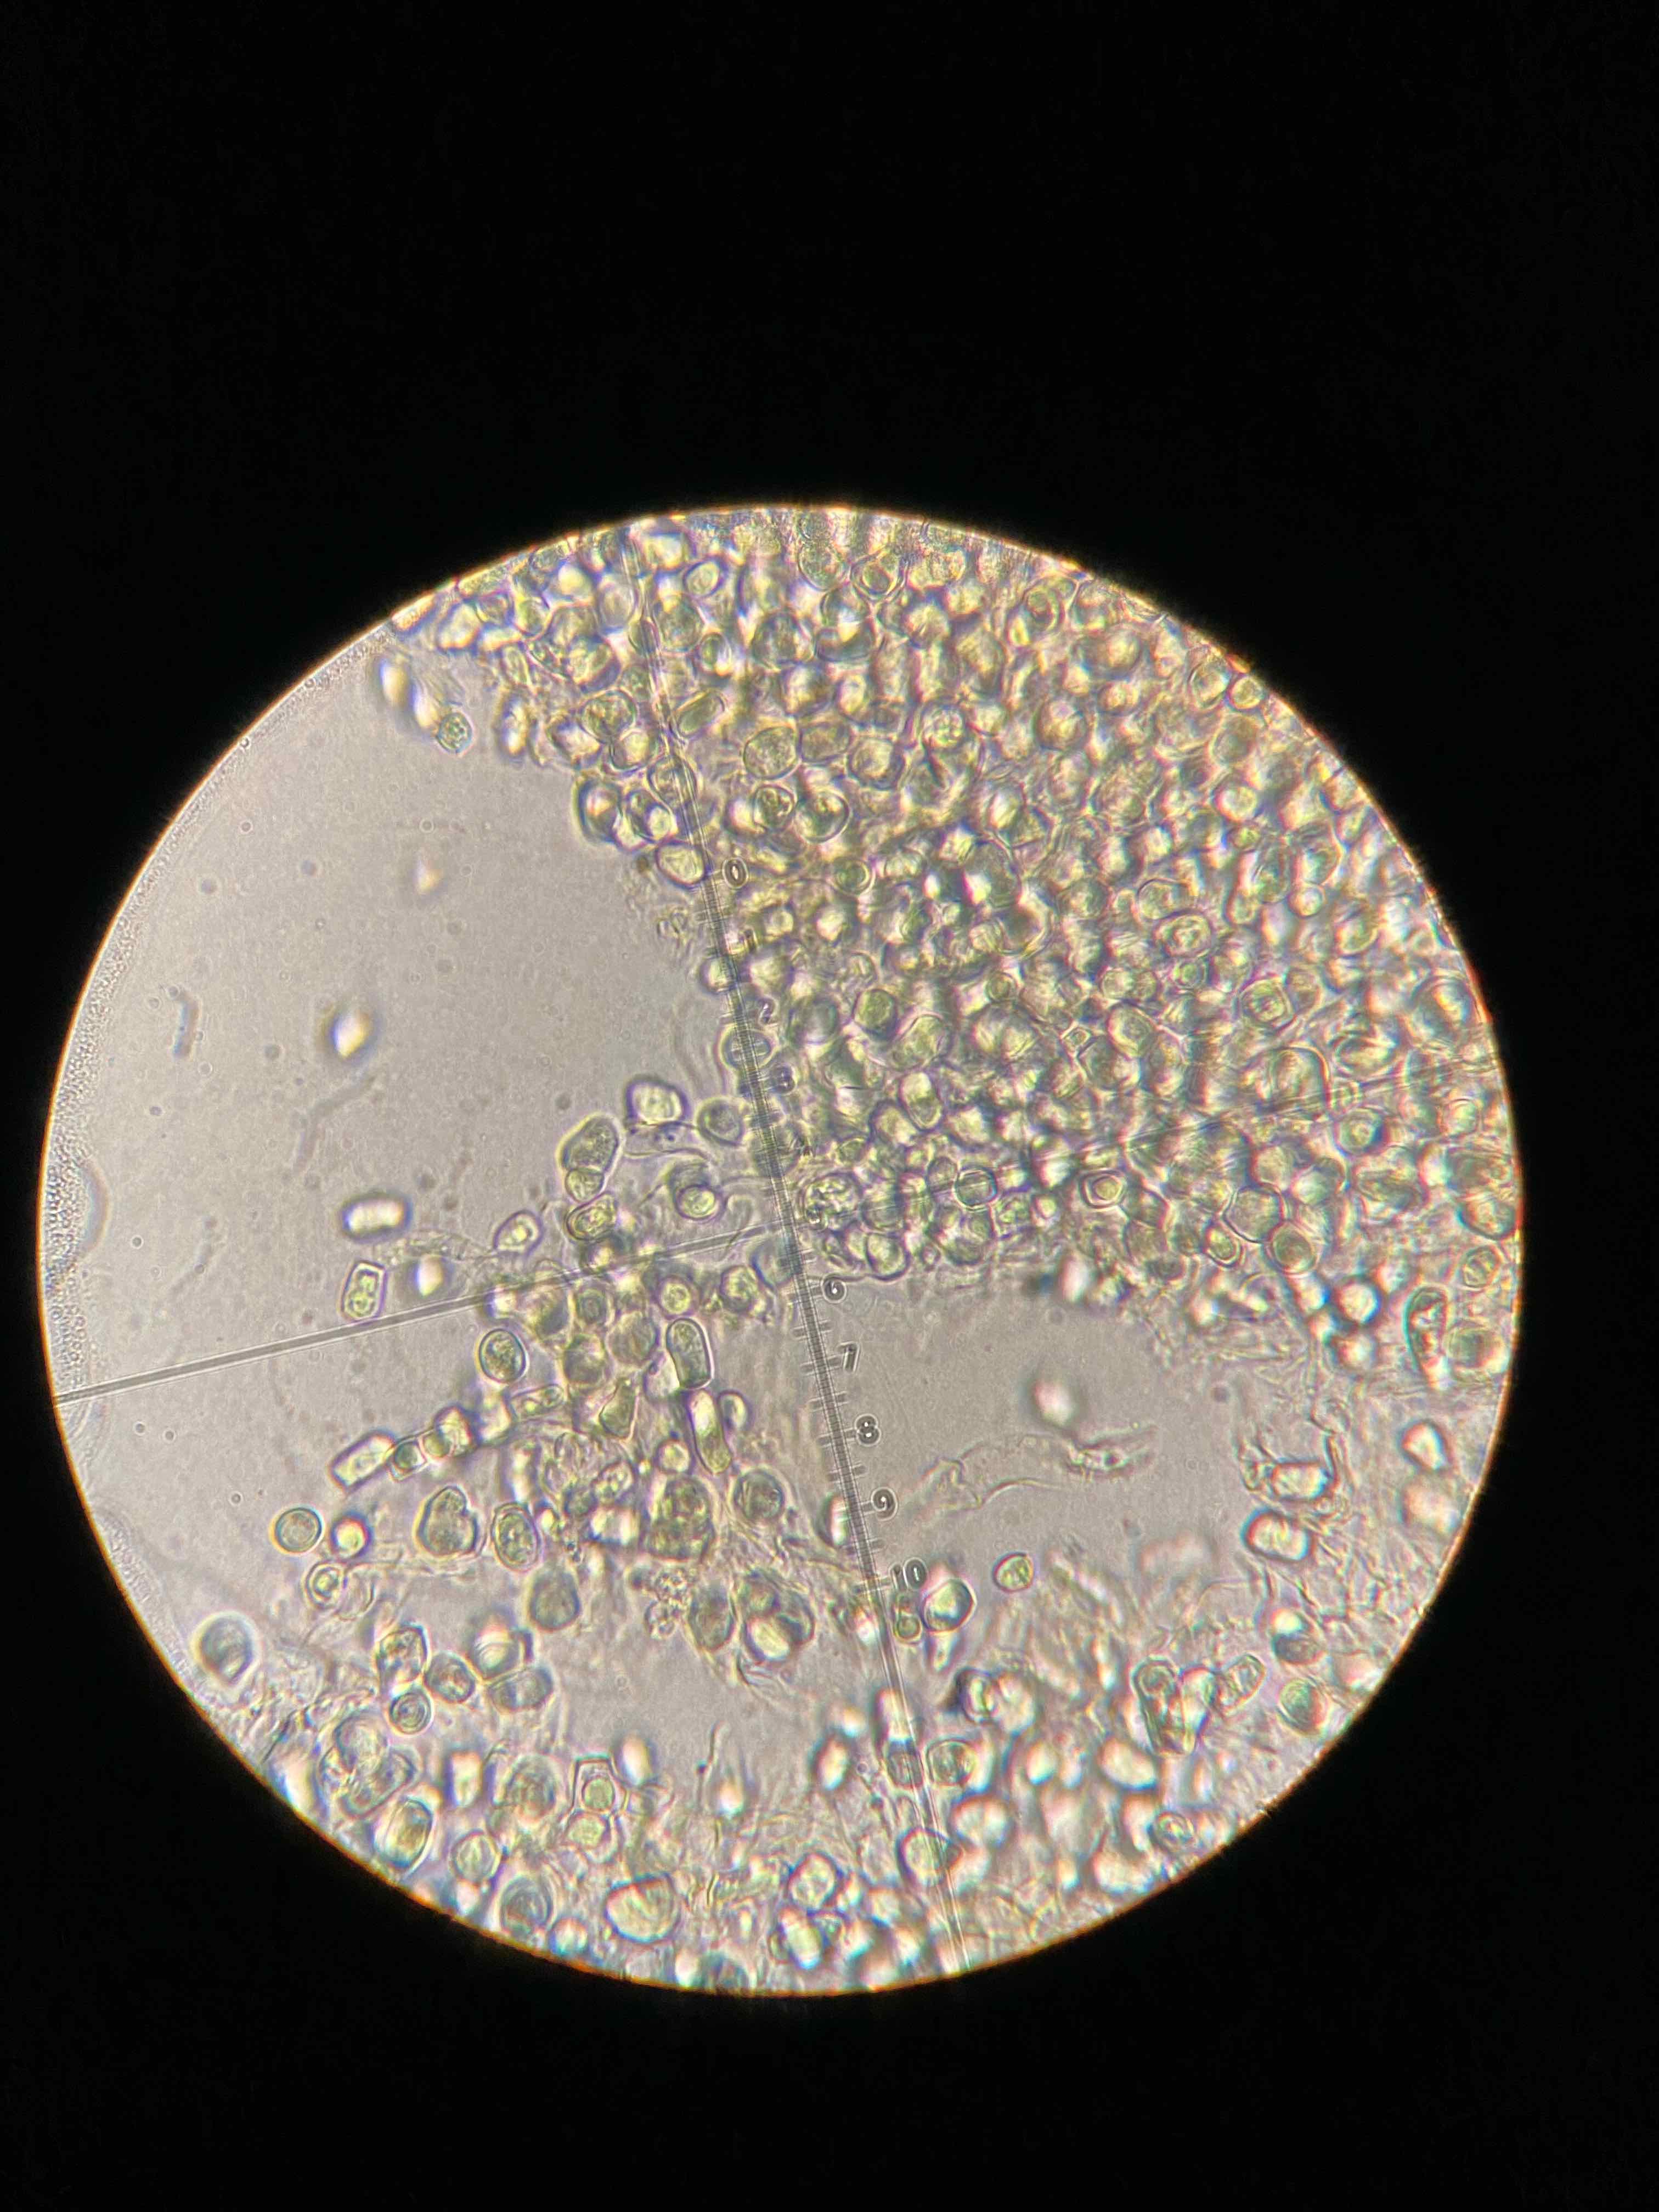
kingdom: Fungi
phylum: Basidiomycota
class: Agaricomycetes
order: Agaricales
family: Tricholomataceae
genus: Cystoderma
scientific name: Cystoderma jasonis
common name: gulkødet grynhat
